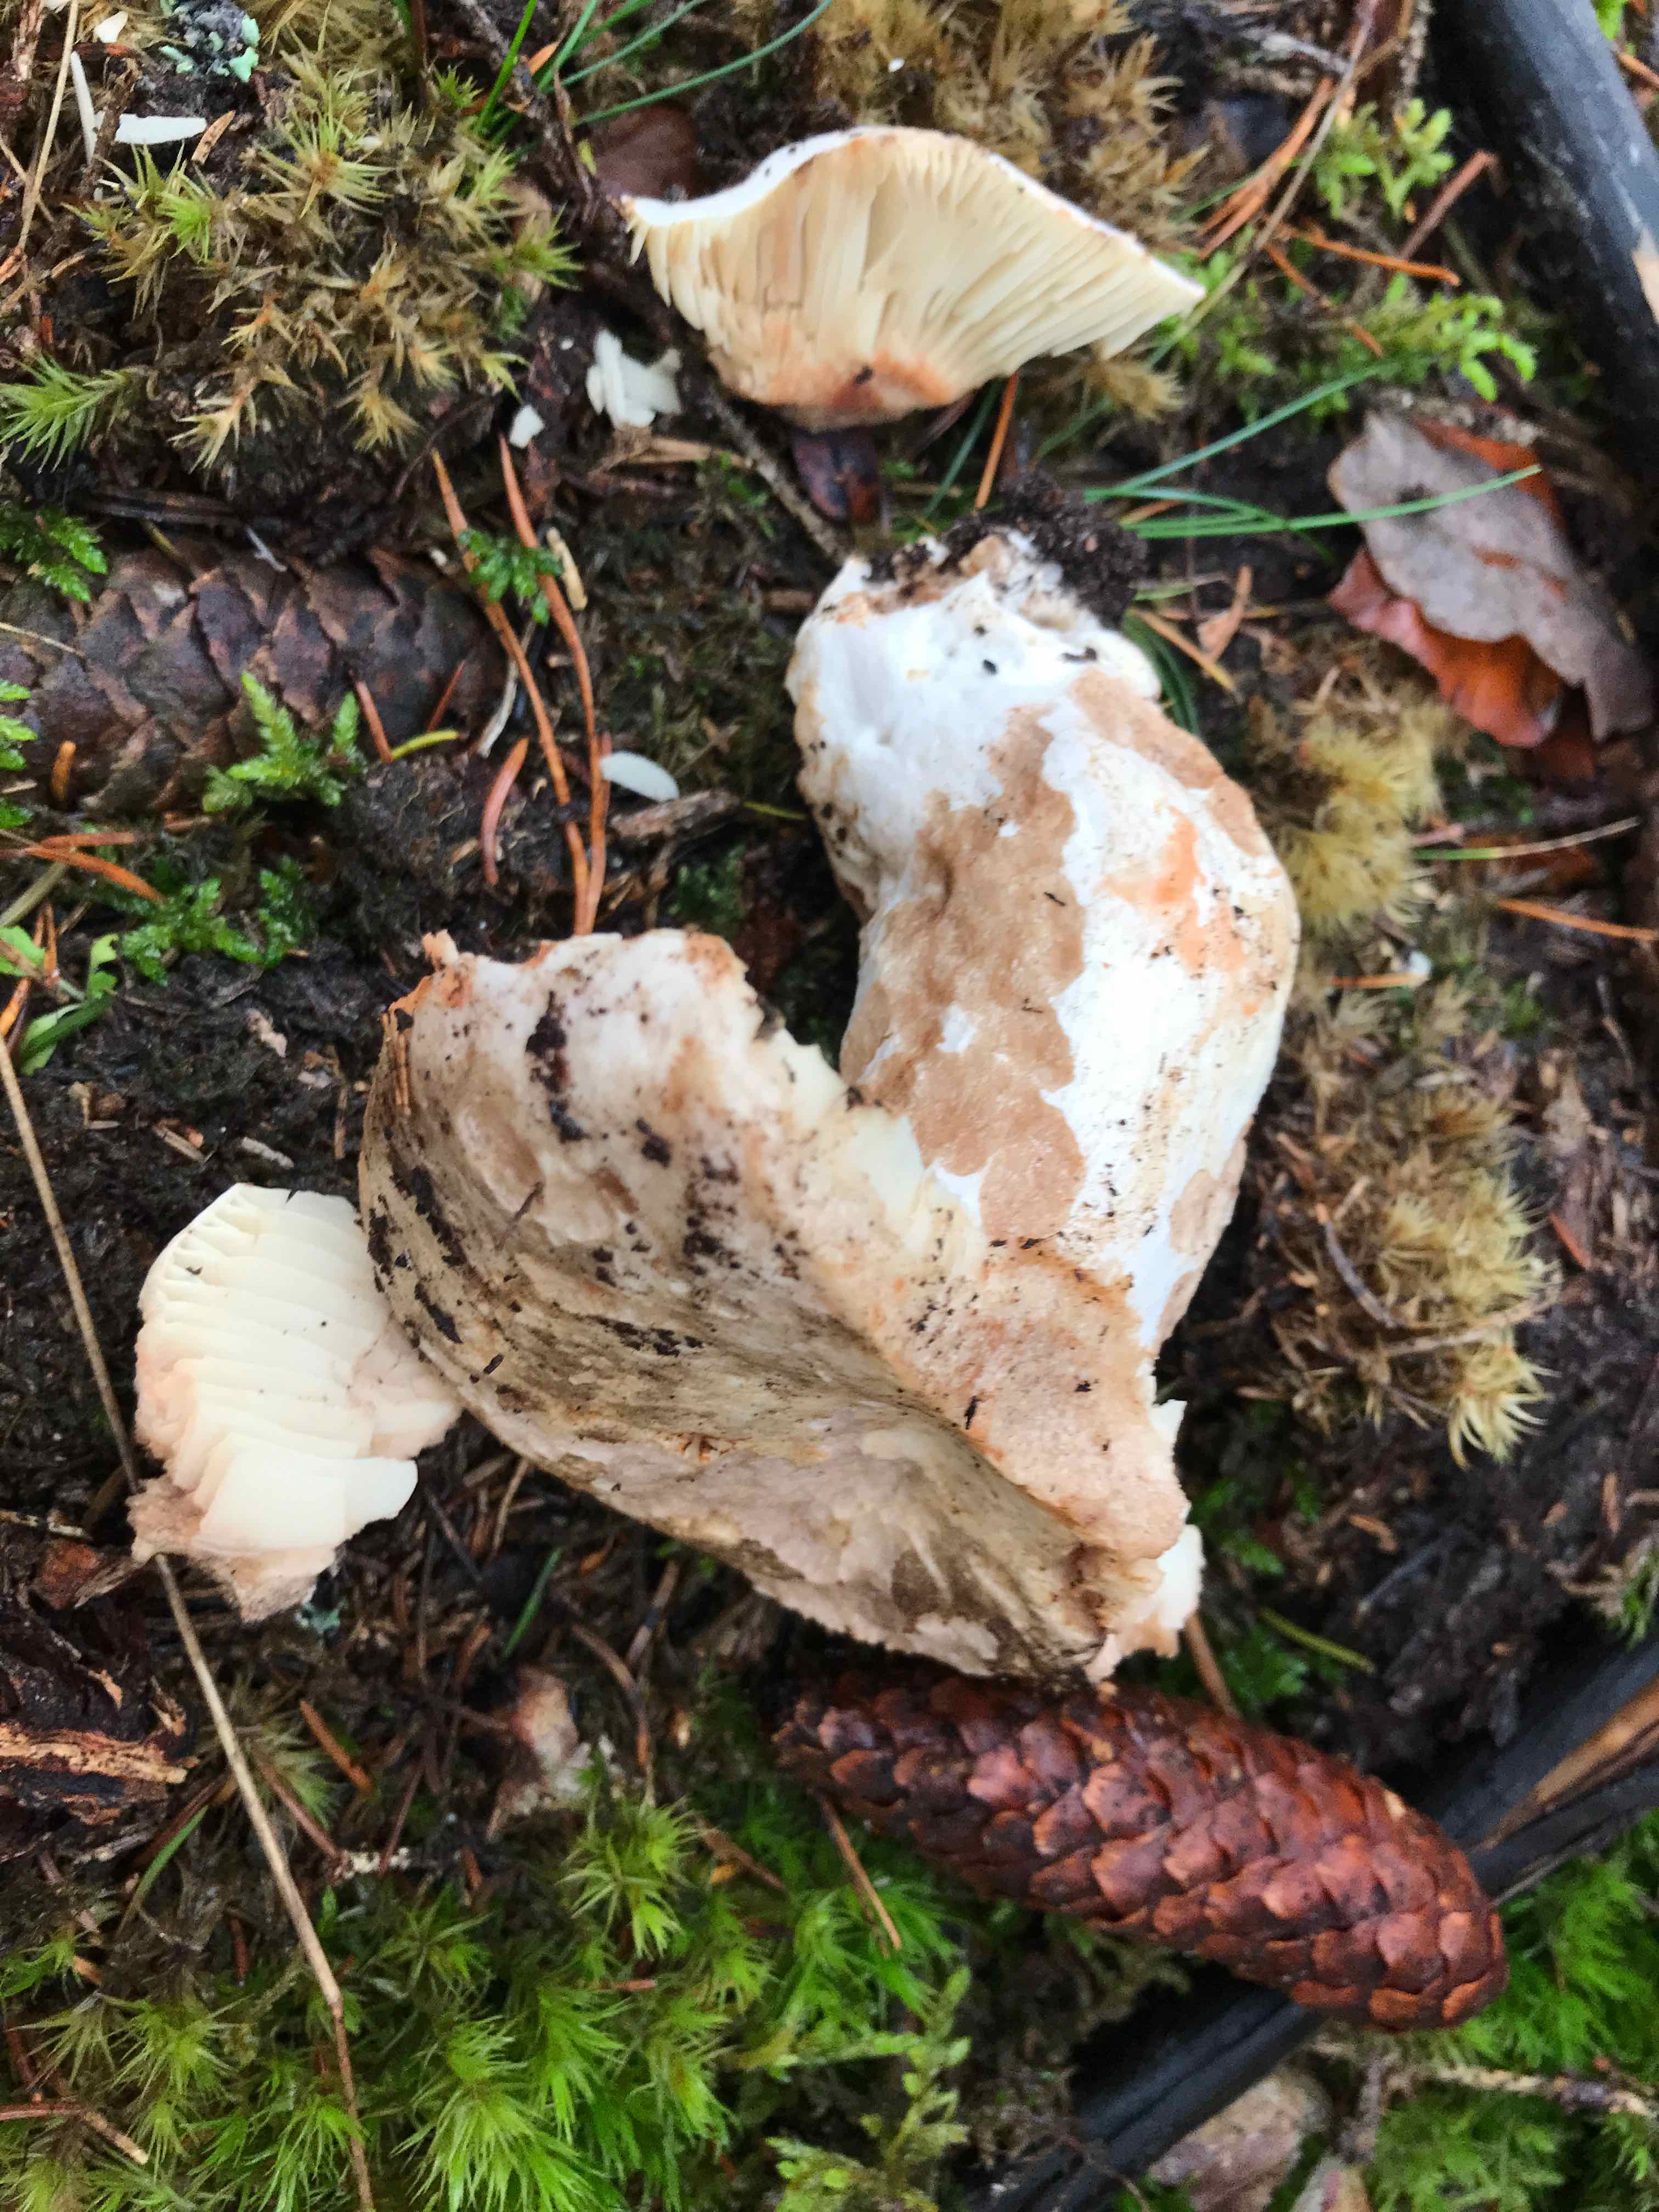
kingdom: Fungi
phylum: Basidiomycota
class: Agaricomycetes
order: Russulales
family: Russulaceae
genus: Russula
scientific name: Russula adusta
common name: sværtende skørhat
